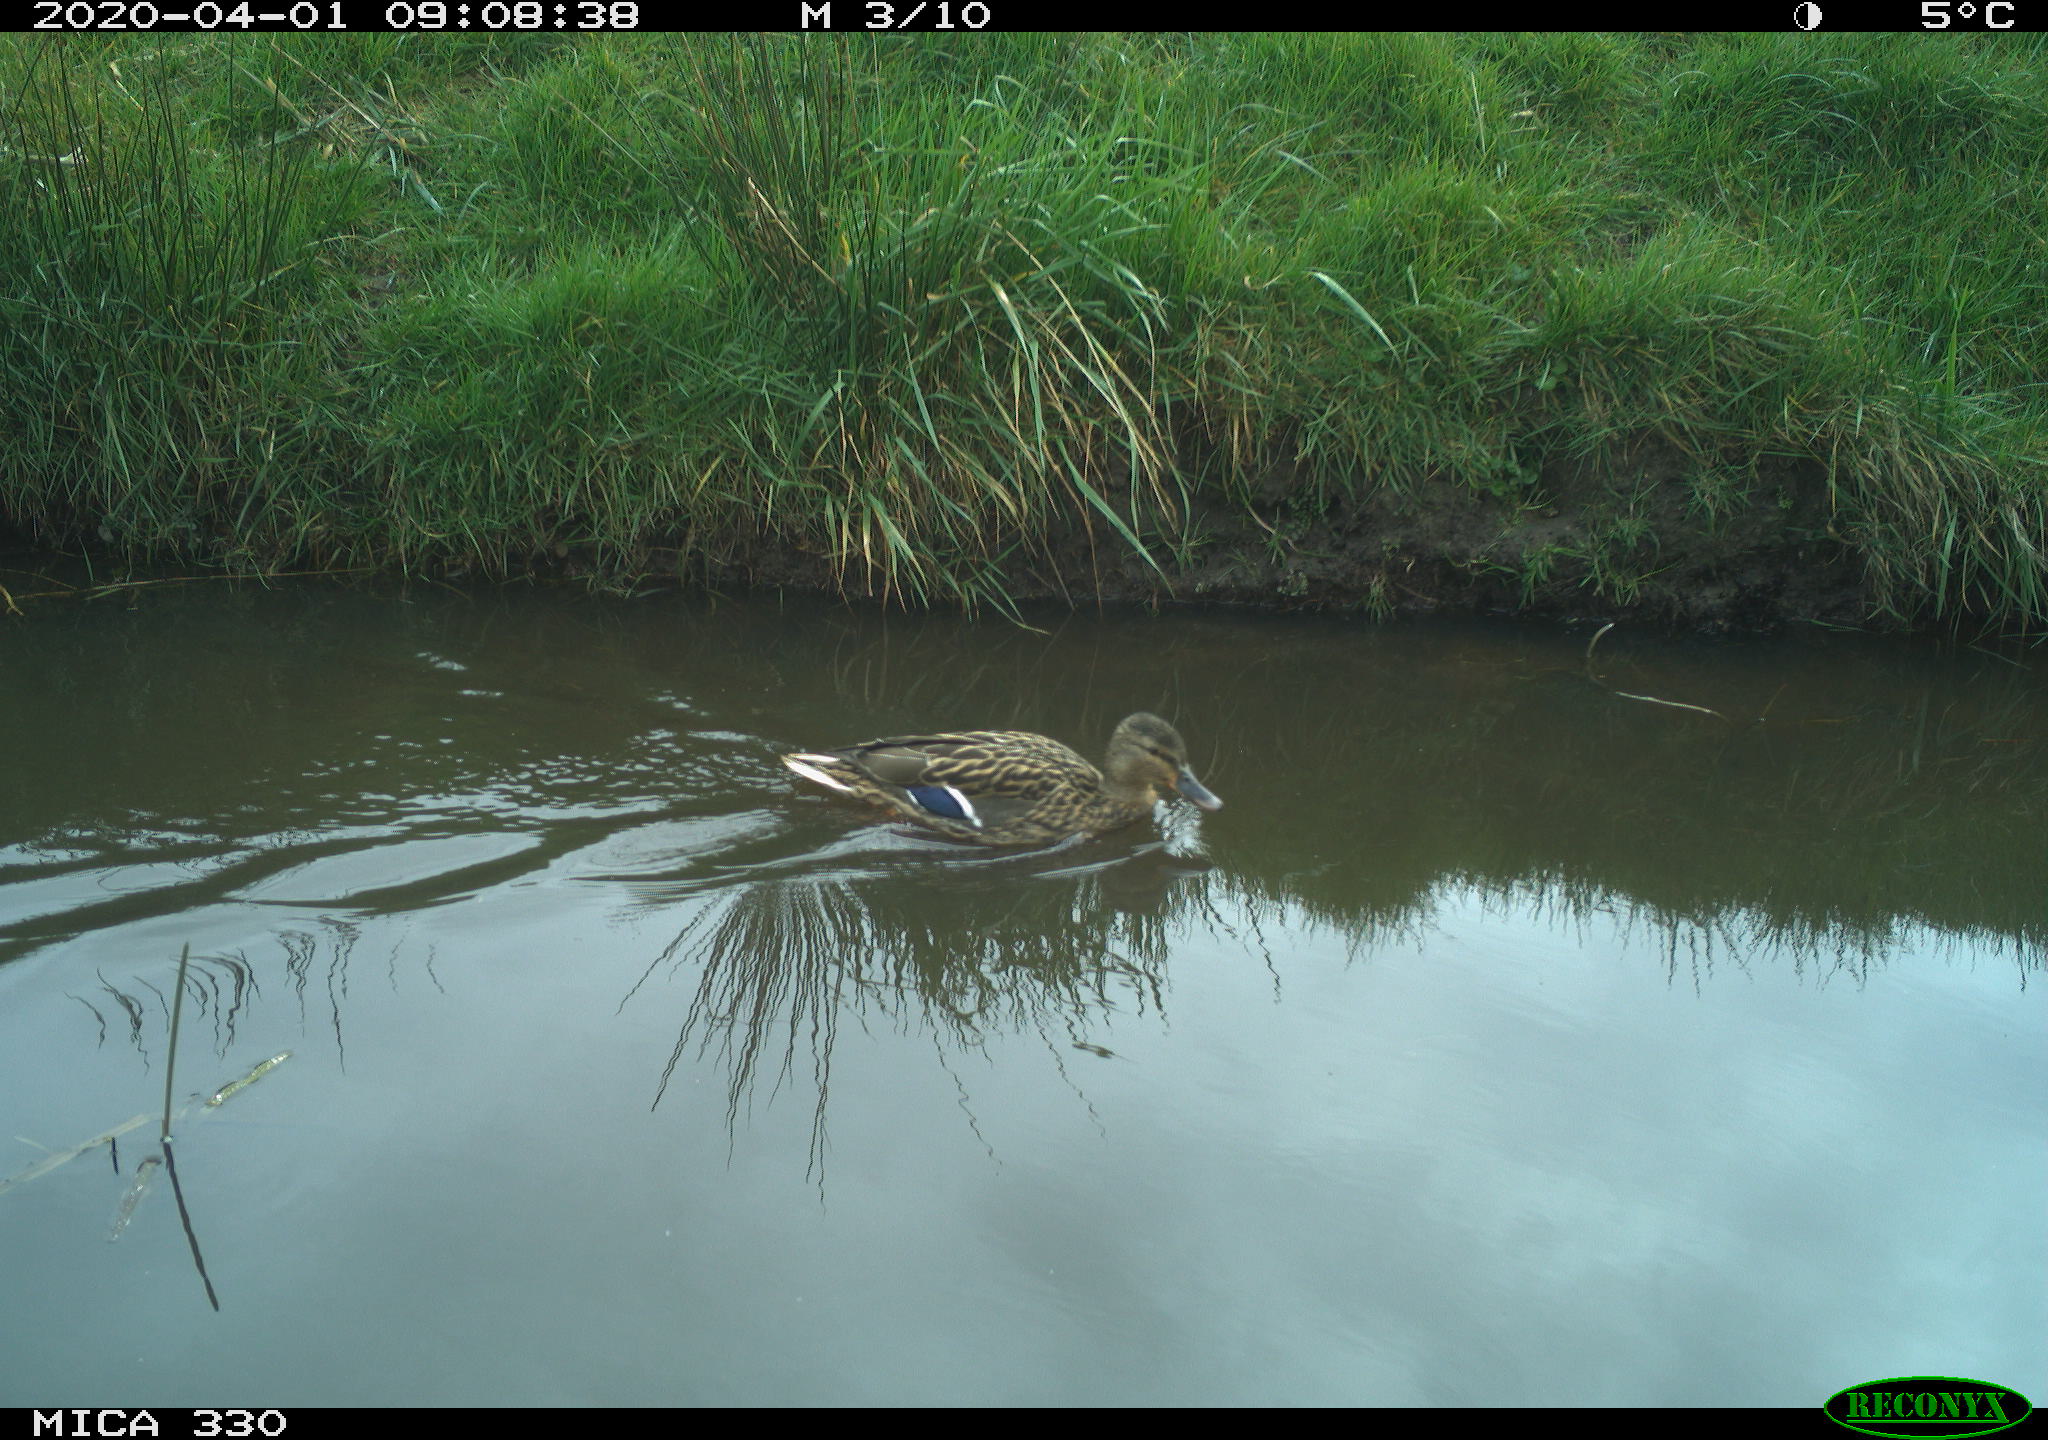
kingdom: Animalia
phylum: Chordata
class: Aves
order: Anseriformes
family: Anatidae
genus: Anas
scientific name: Anas platyrhynchos
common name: Mallard
